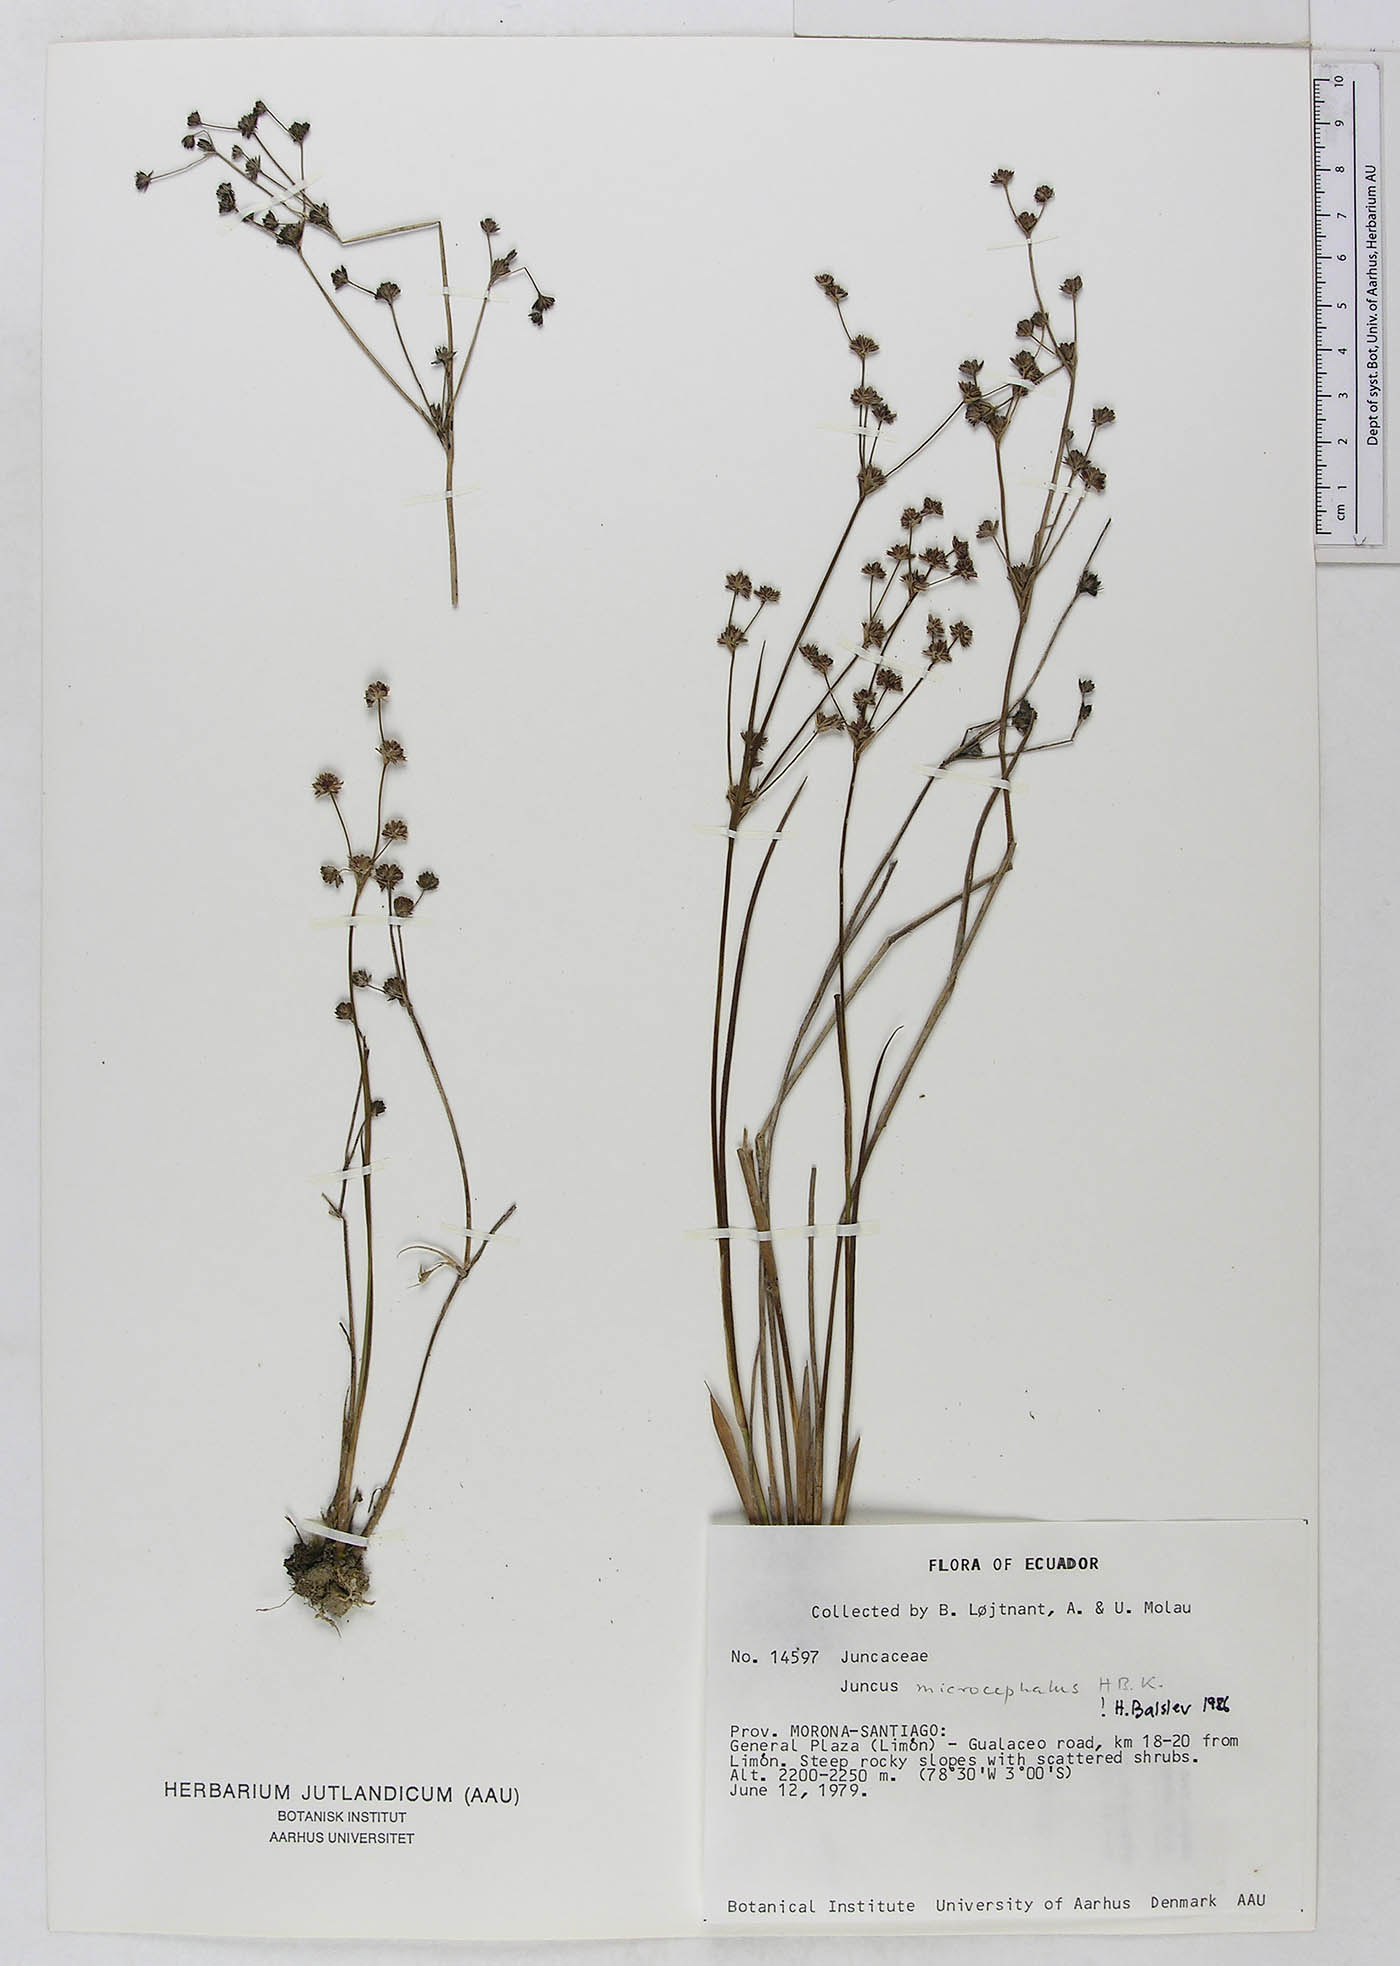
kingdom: Plantae
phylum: Tracheophyta
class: Liliopsida
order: Poales
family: Juncaceae
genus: Juncus
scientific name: Juncus microcephalus
